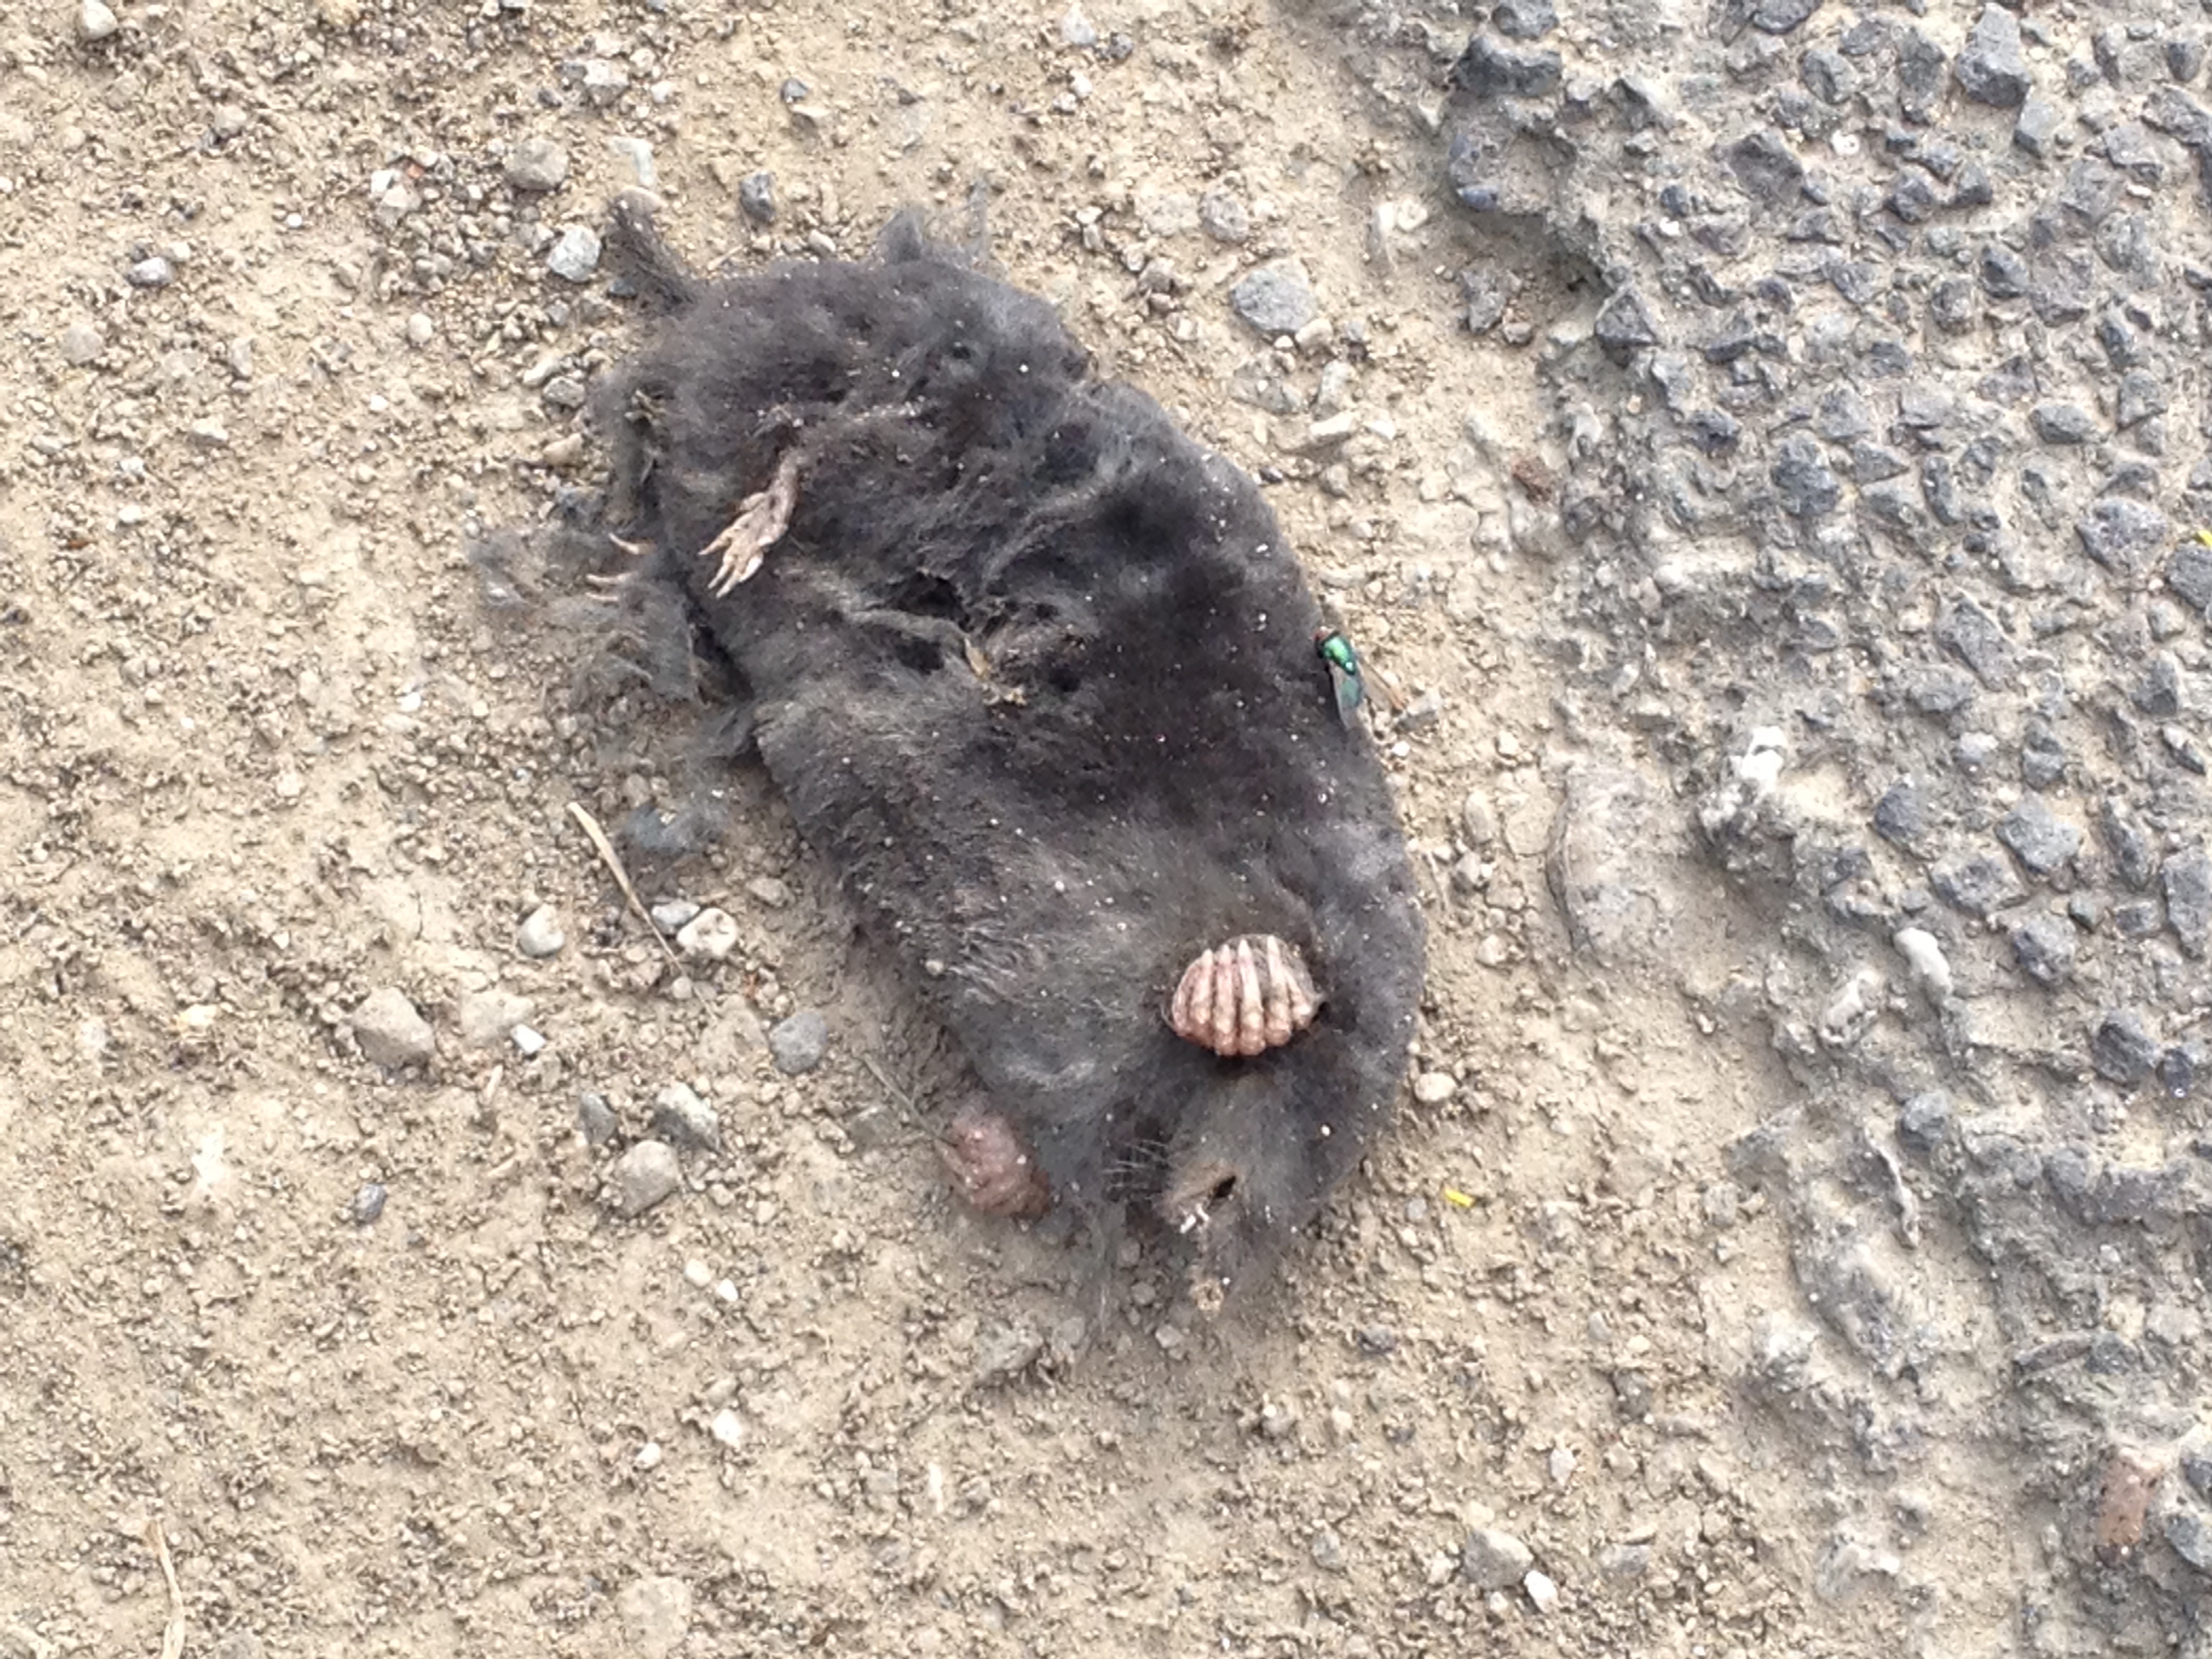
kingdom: Animalia
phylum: Chordata
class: Mammalia
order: Soricomorpha
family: Talpidae
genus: Talpa
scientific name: Talpa europaea
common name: European mole
